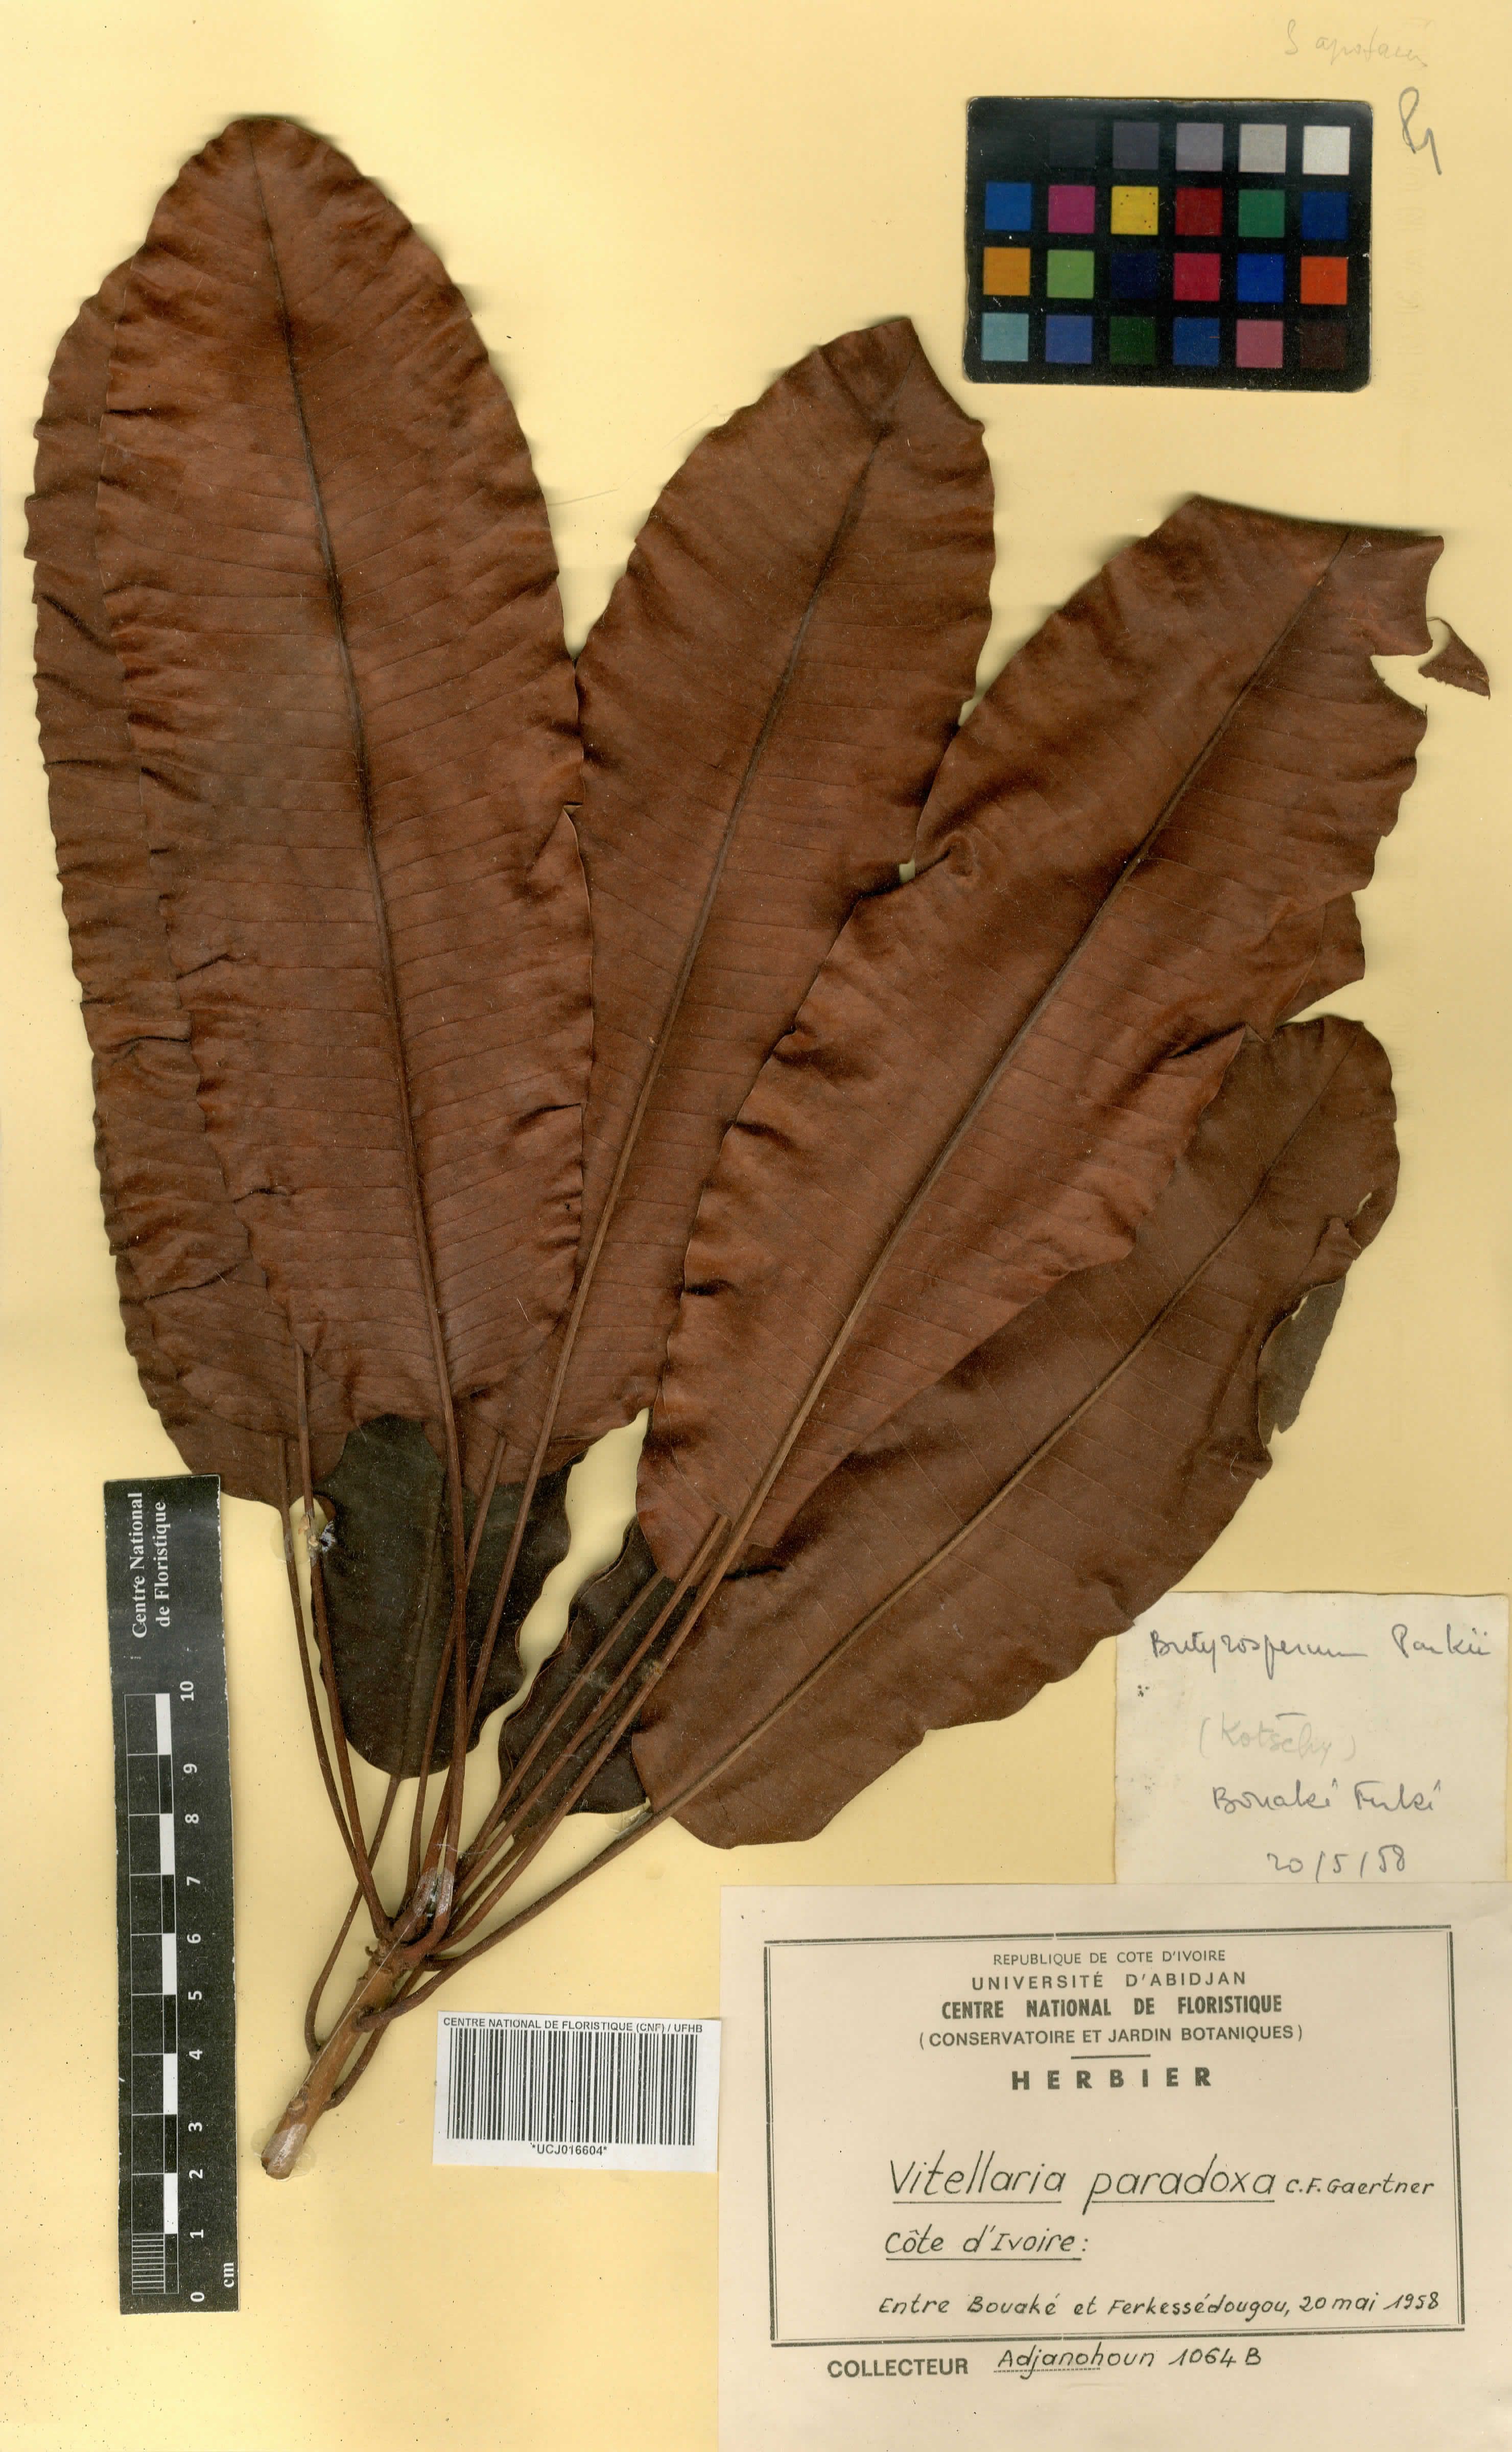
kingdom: Plantae
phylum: Tracheophyta
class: Magnoliopsida
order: Ericales
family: Sapotaceae
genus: Vitellaria
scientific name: Vitellaria paradoxa
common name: Shea butter tree
